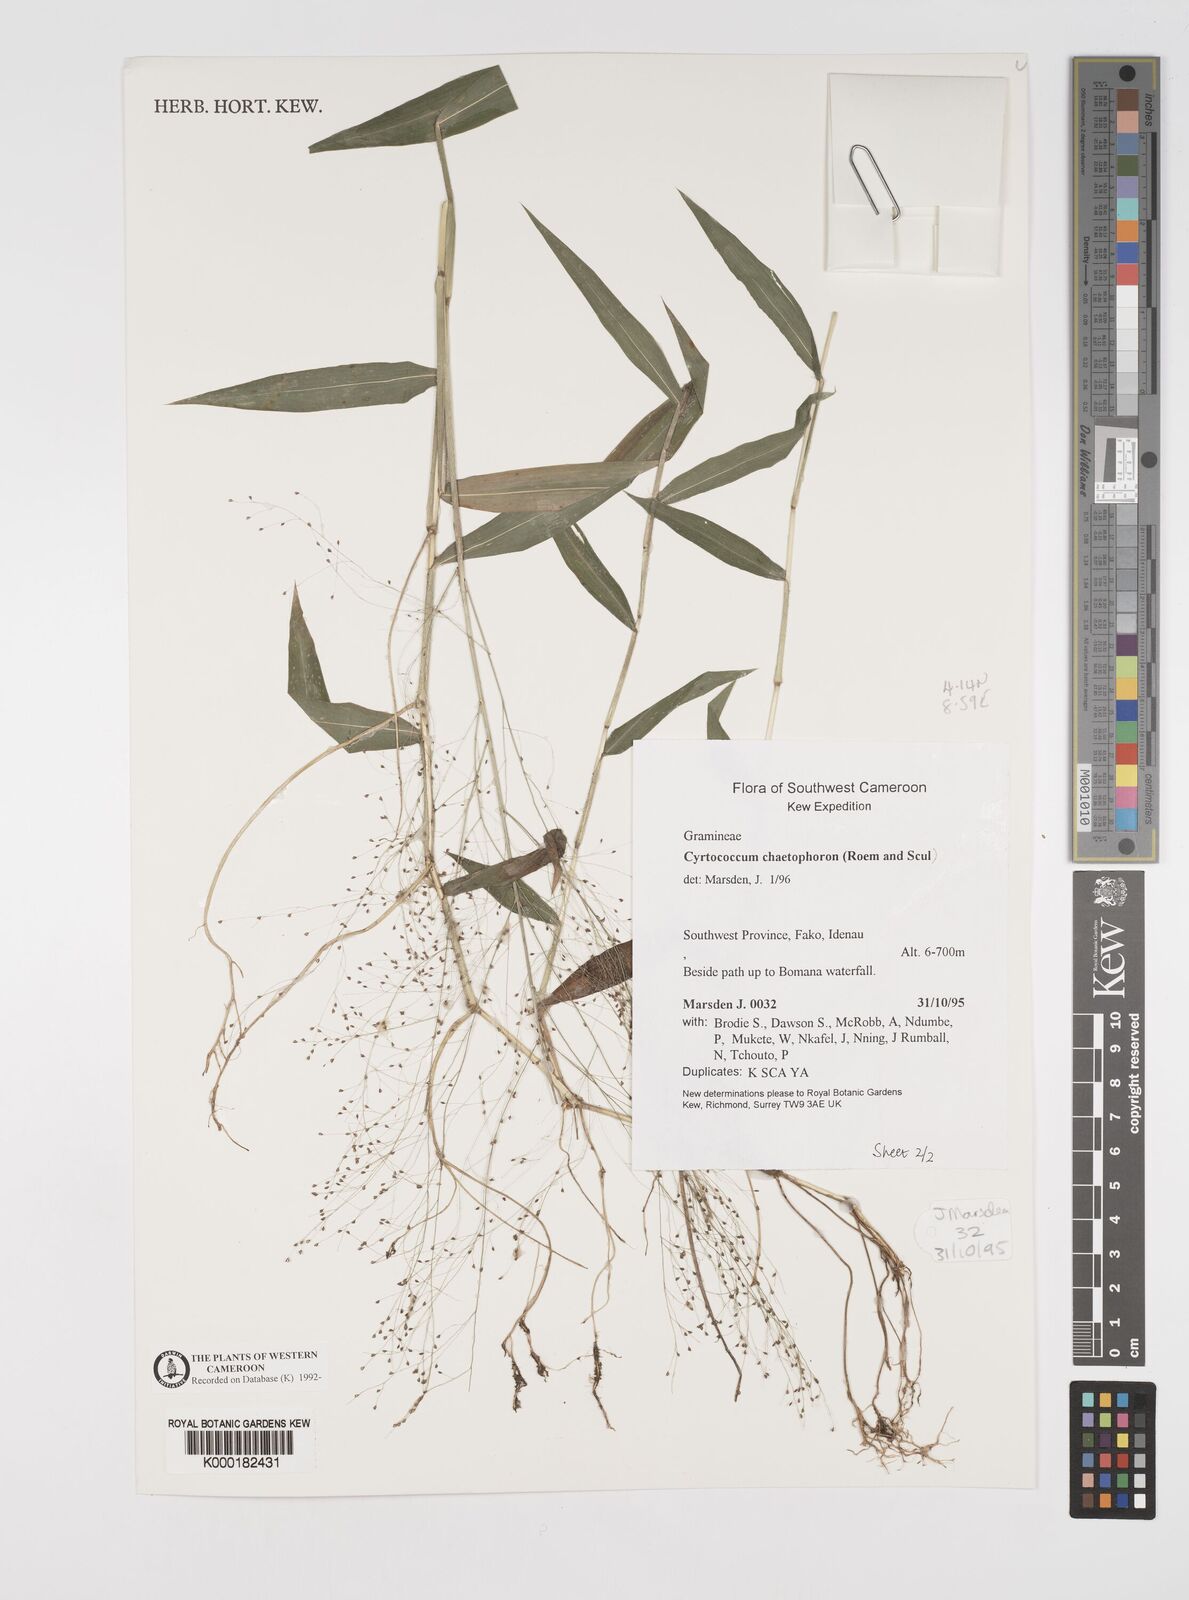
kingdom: Plantae
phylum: Tracheophyta
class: Liliopsida
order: Poales
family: Poaceae
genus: Cyrtococcum
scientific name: Cyrtococcum chaetophoron
